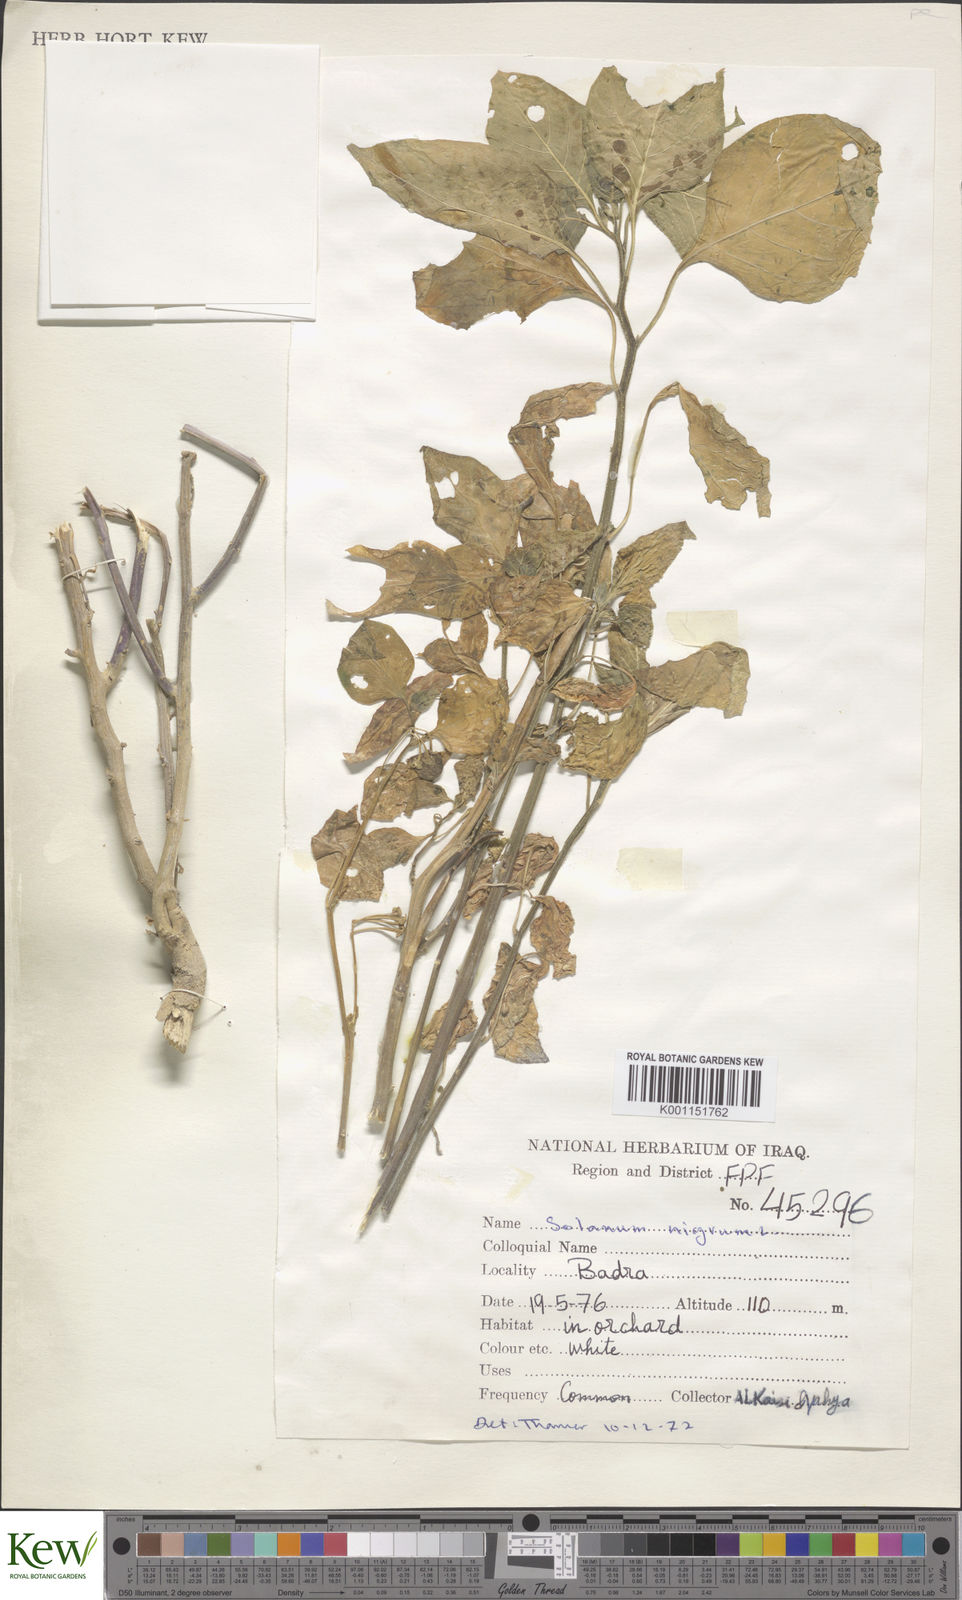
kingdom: Plantae
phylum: Tracheophyta
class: Magnoliopsida
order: Solanales
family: Solanaceae
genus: Solanum
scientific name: Solanum nigrum
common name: Black nightshade
